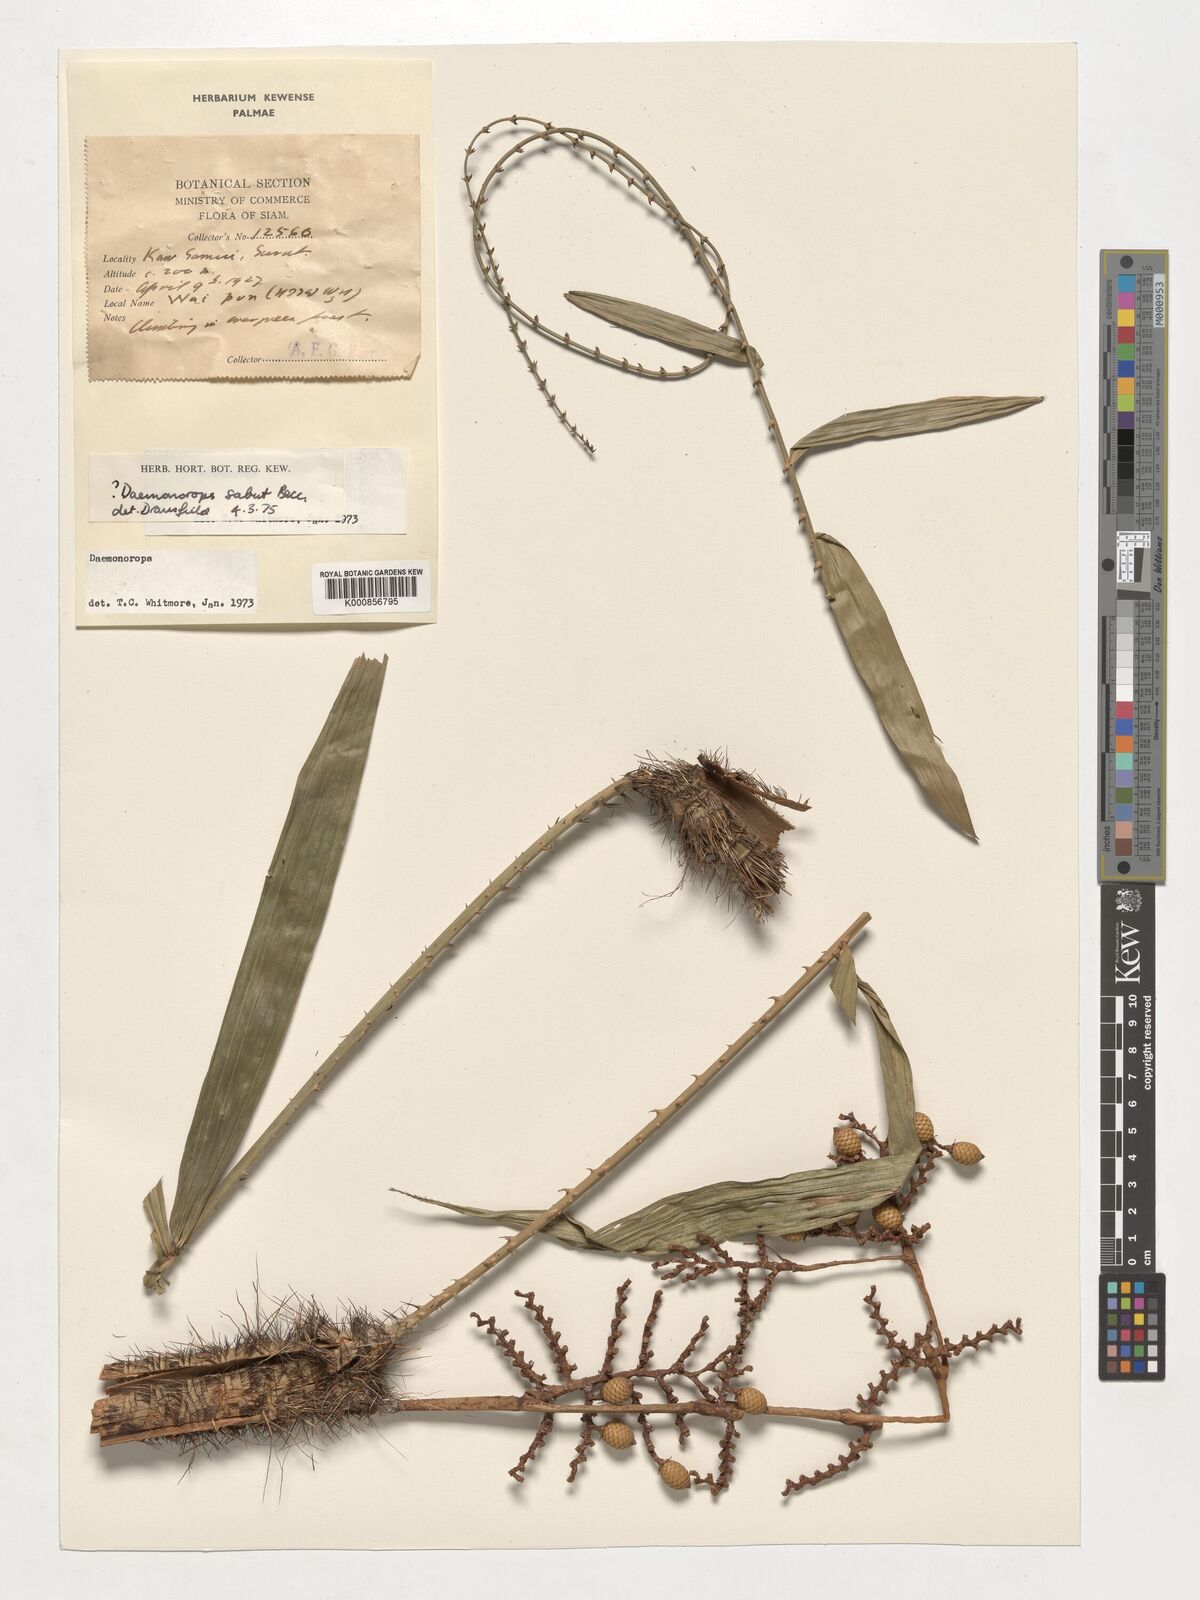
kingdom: Plantae
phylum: Tracheophyta
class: Liliopsida
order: Arecales
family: Arecaceae
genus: Calamus
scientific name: Calamus crinitus
